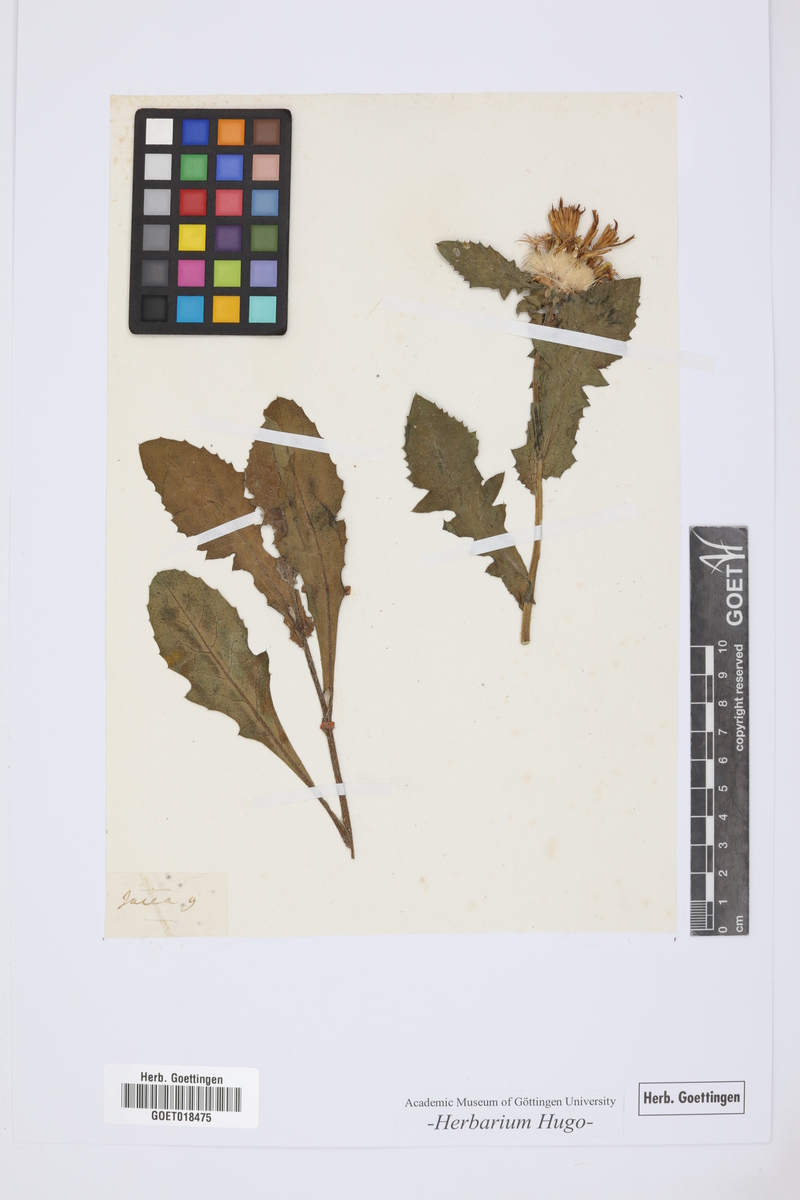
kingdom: Plantae
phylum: Tracheophyta
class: Magnoliopsida
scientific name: Magnoliopsida
